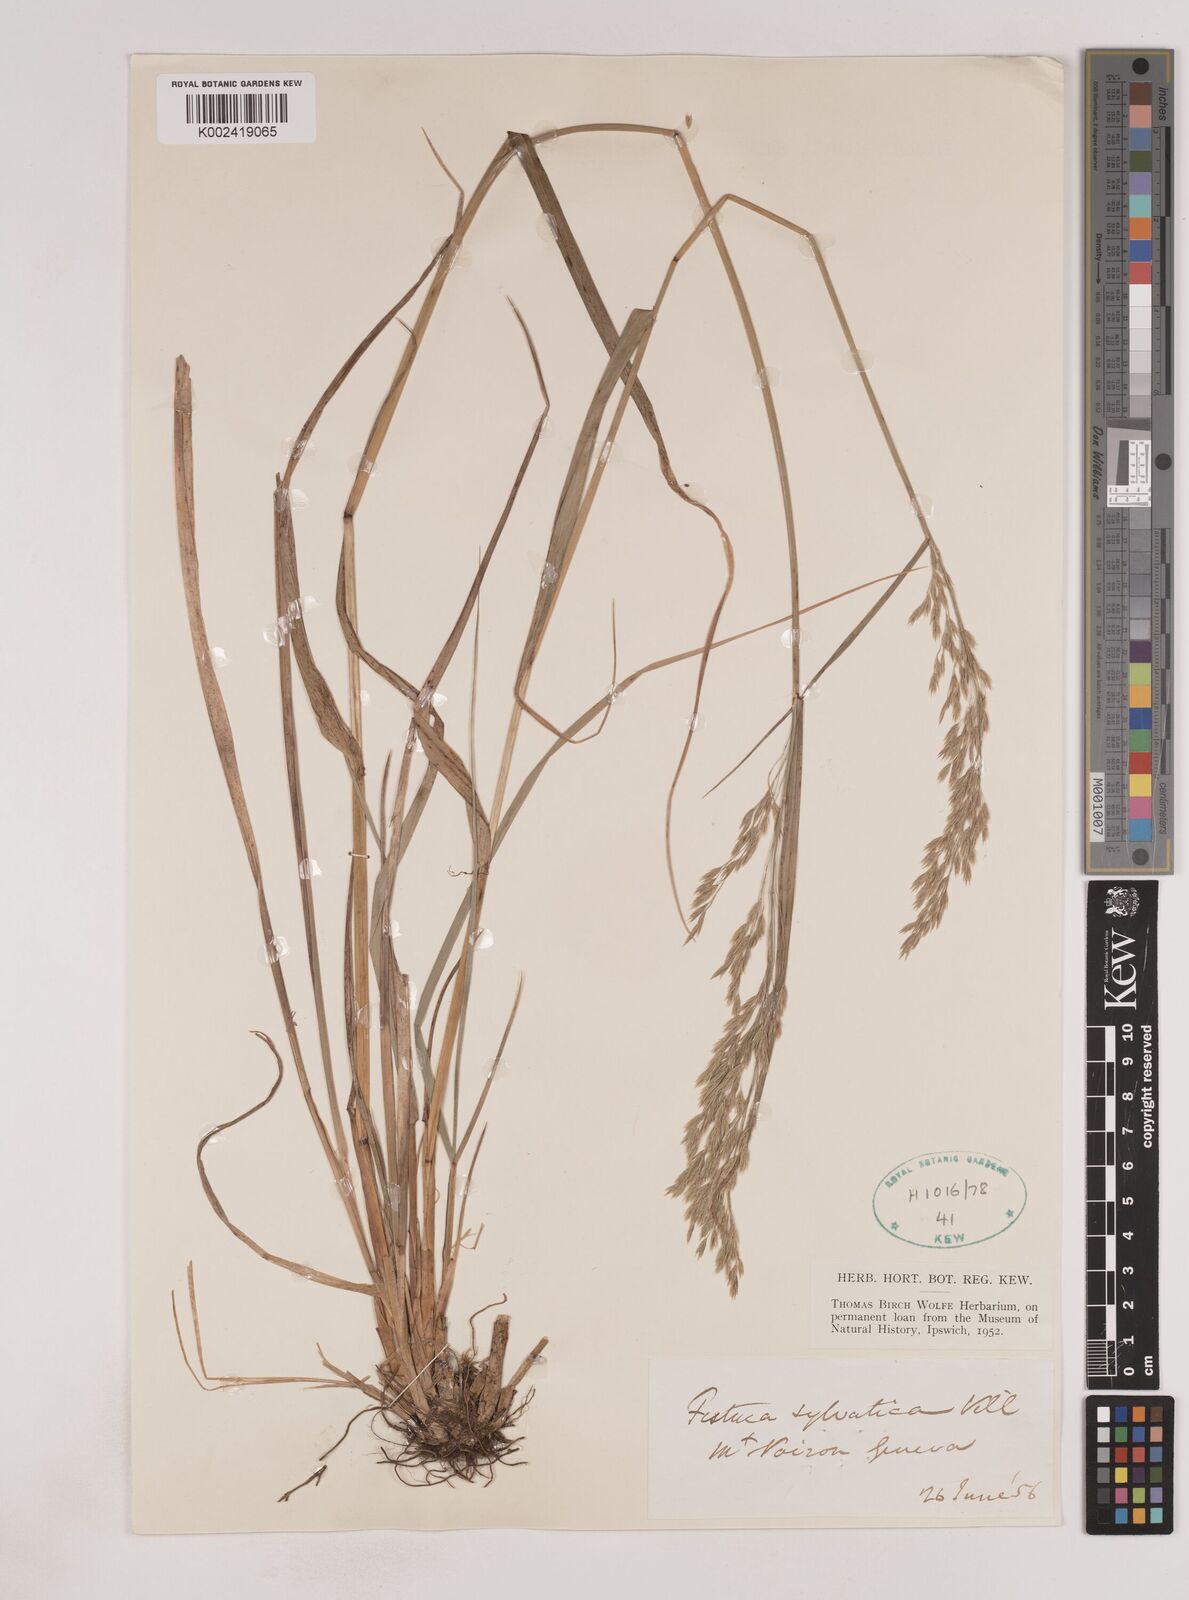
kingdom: Plantae
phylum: Tracheophyta
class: Liliopsida
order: Poales
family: Poaceae
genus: Festuca
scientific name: Festuca drymeja
